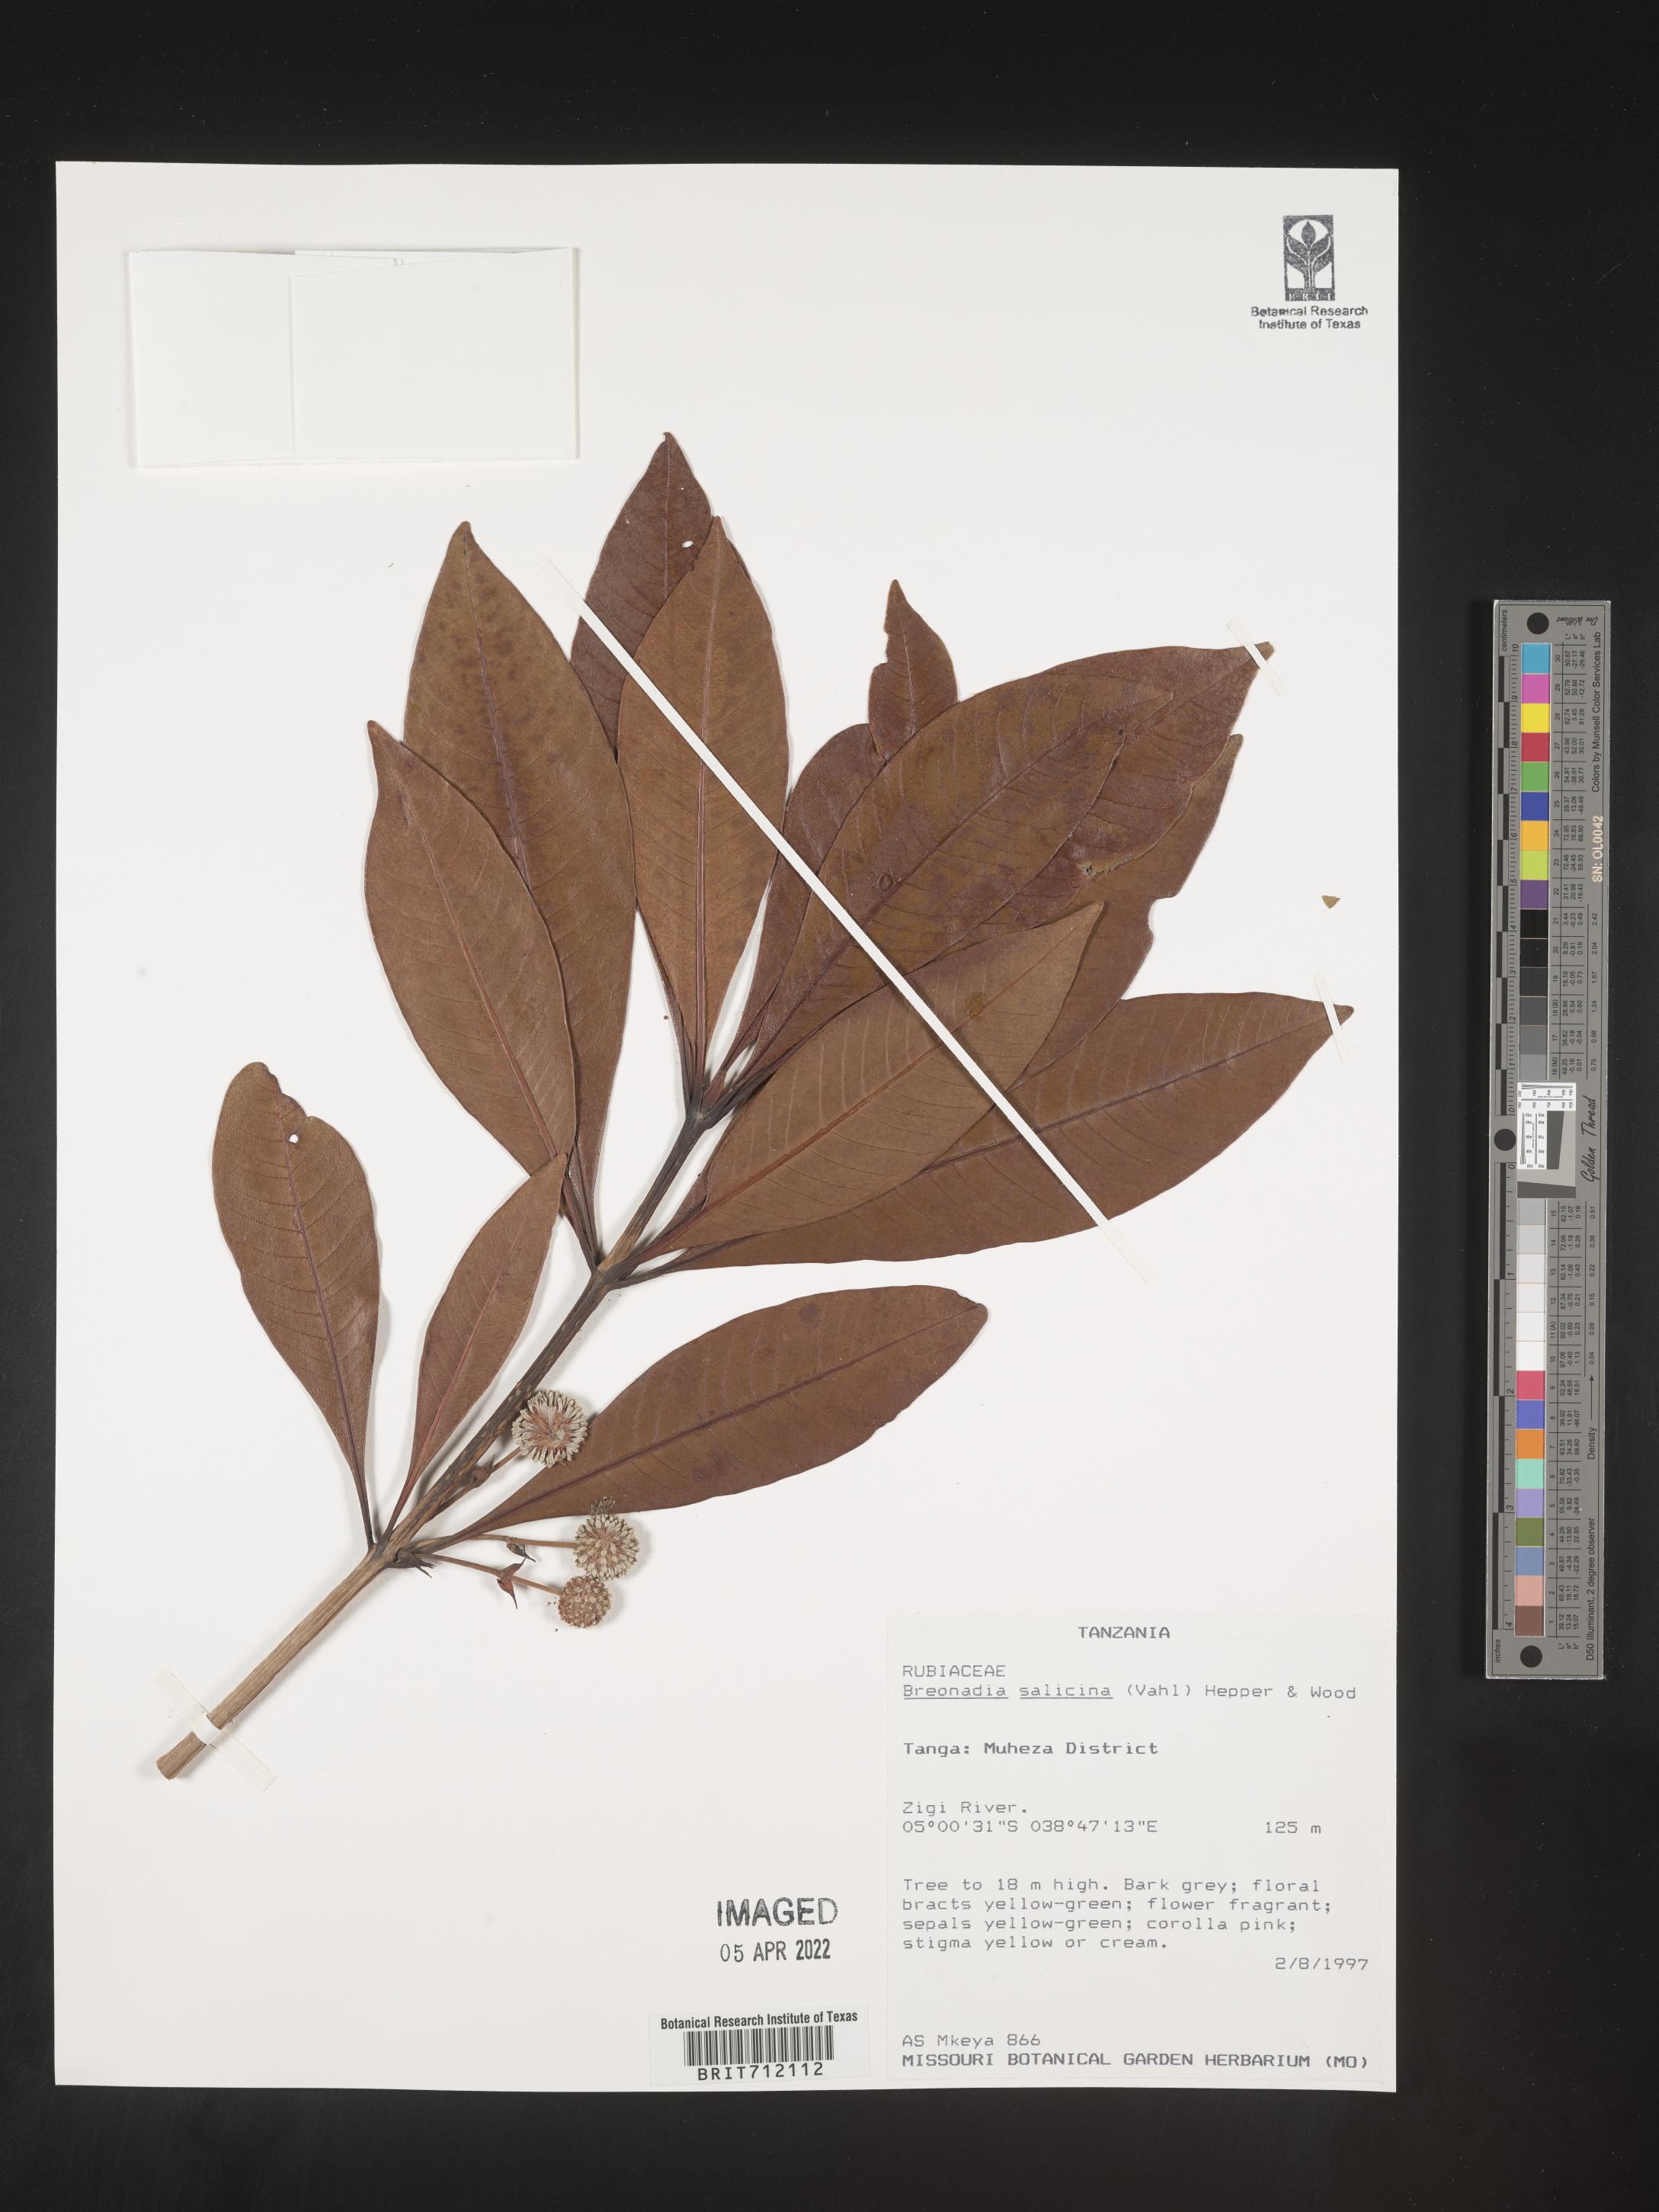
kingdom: Plantae
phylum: Tracheophyta
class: Magnoliopsida
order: Gentianales
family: Rubiaceae
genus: Breonadia
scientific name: Breonadia
